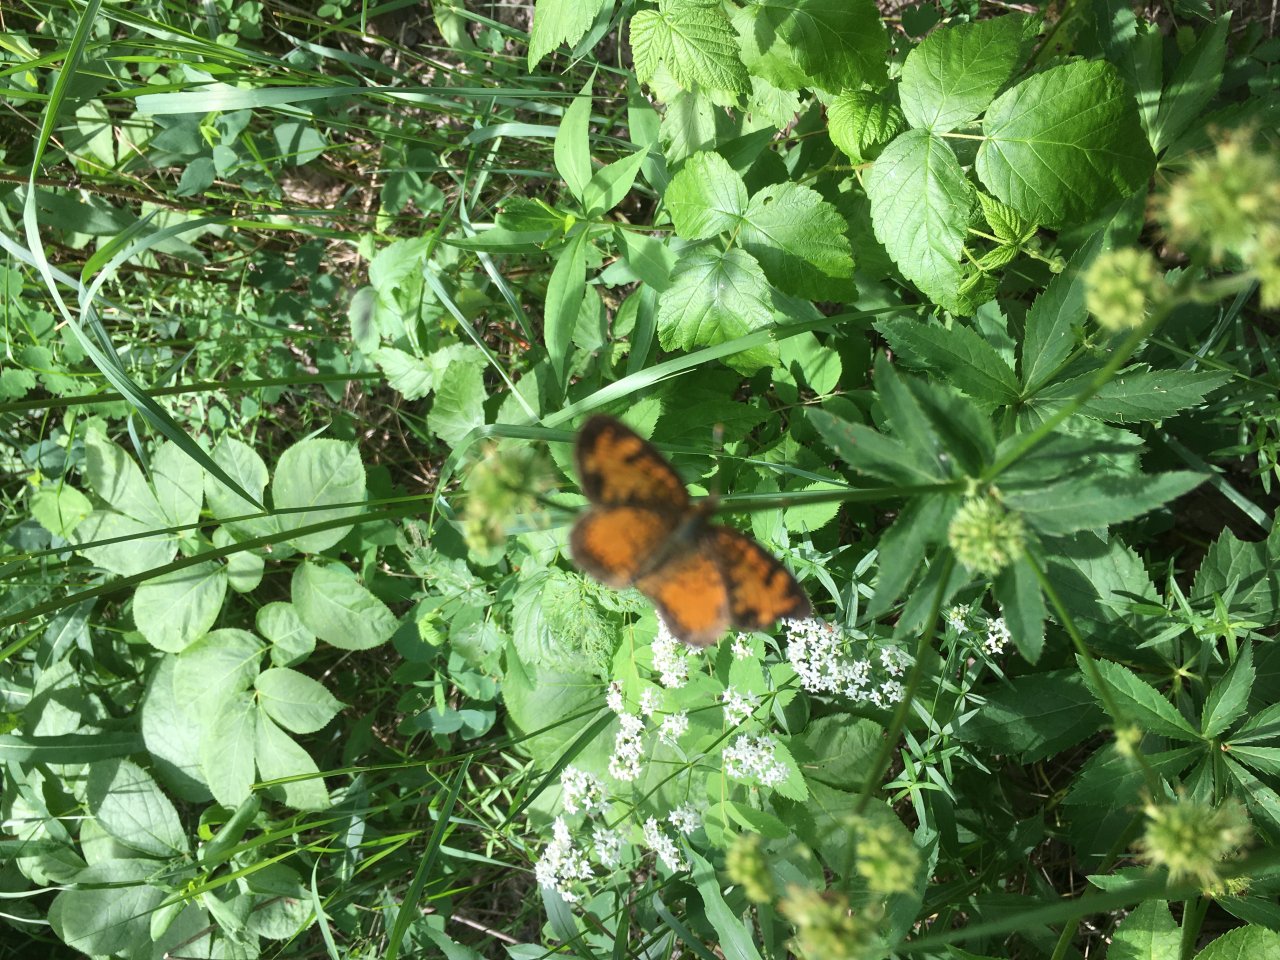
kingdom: Animalia
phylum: Arthropoda
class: Insecta
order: Lepidoptera
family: Nymphalidae
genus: Phyciodes
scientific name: Phyciodes tharos
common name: Northern Crescent
